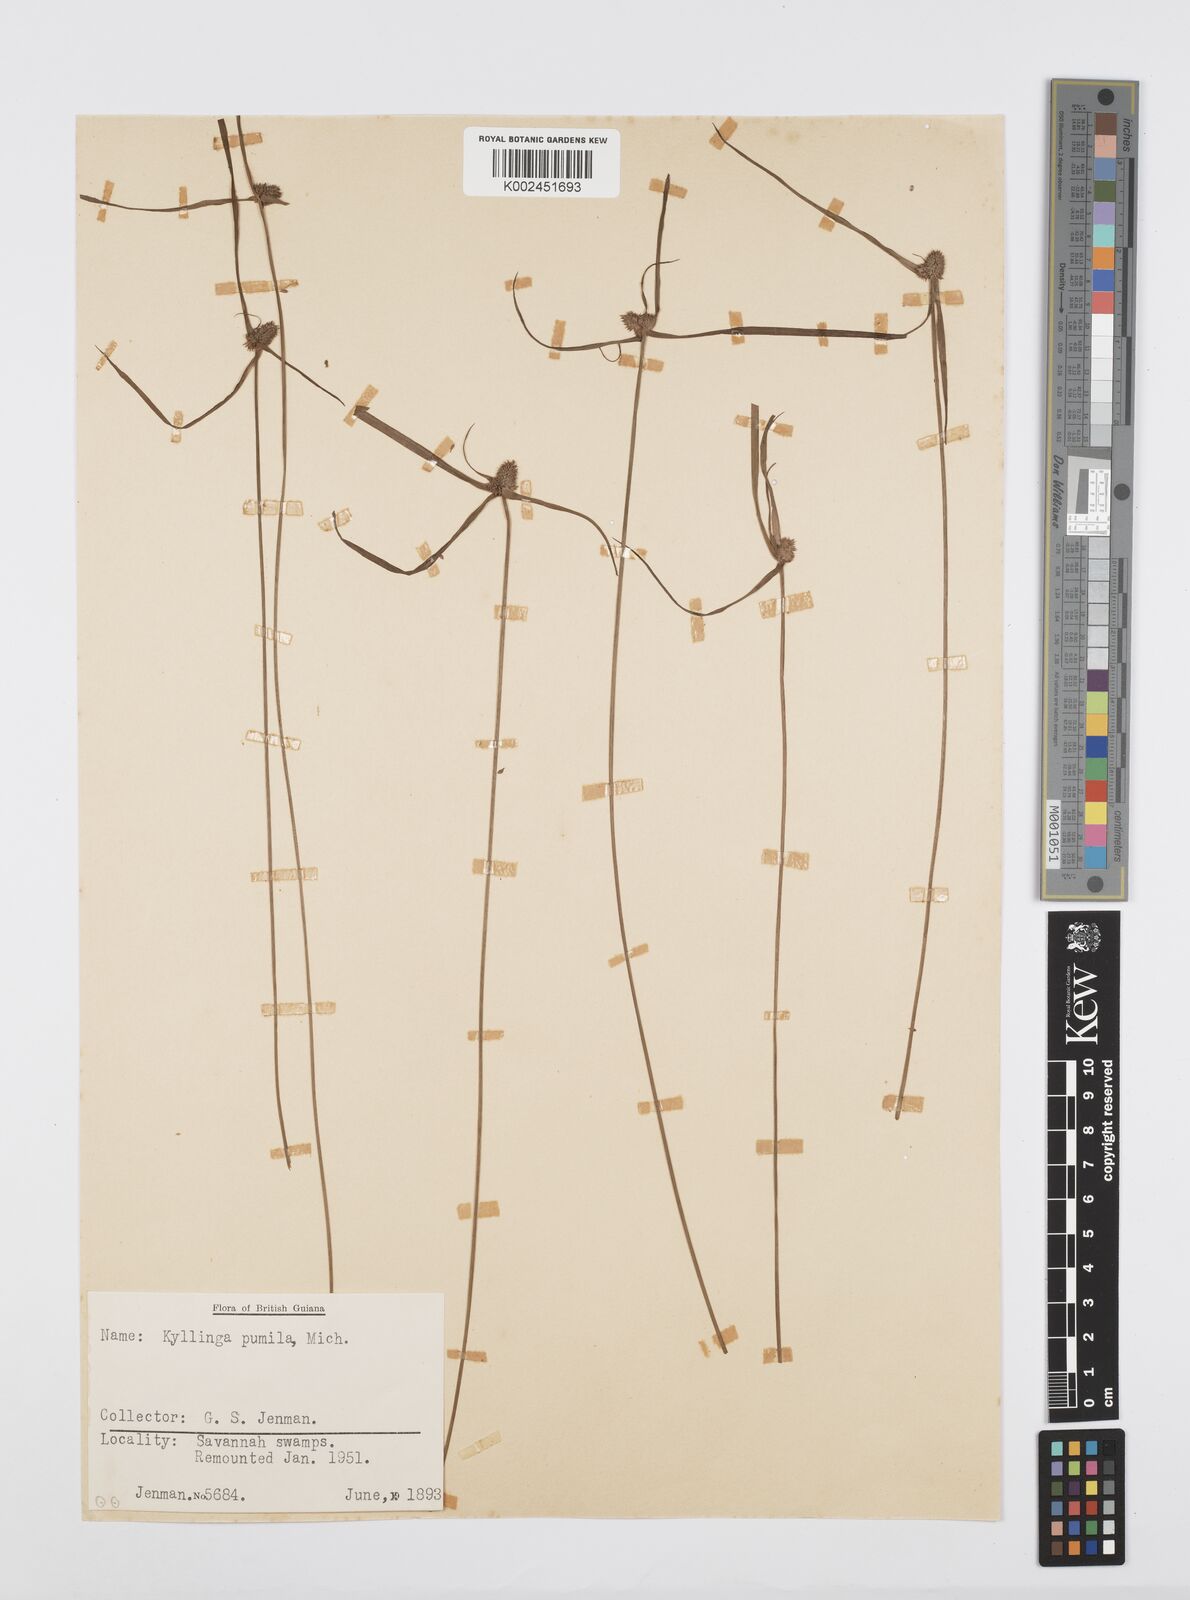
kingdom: Plantae
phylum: Tracheophyta
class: Liliopsida
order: Poales
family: Cyperaceae
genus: Cyperus
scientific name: Cyperus
